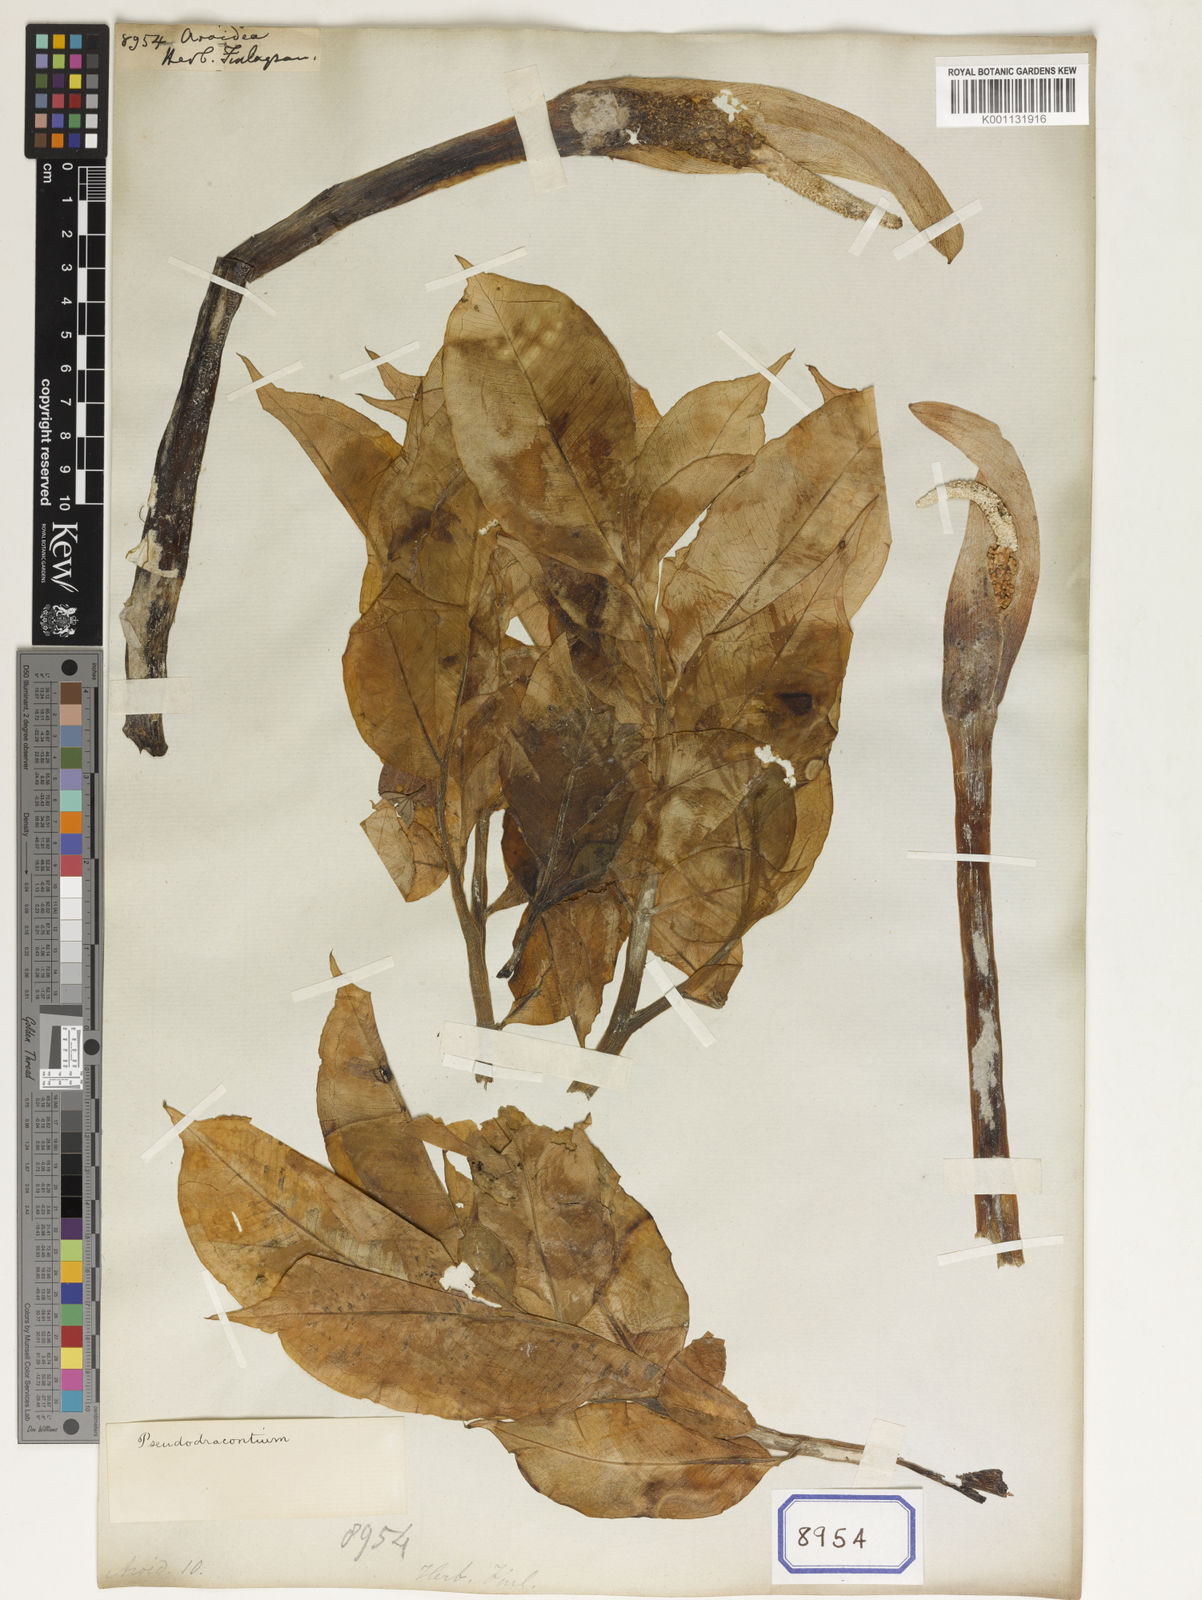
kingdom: Plantae
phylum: Tracheophyta
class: Liliopsida
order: Alismatales
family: Araceae
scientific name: Araceae
